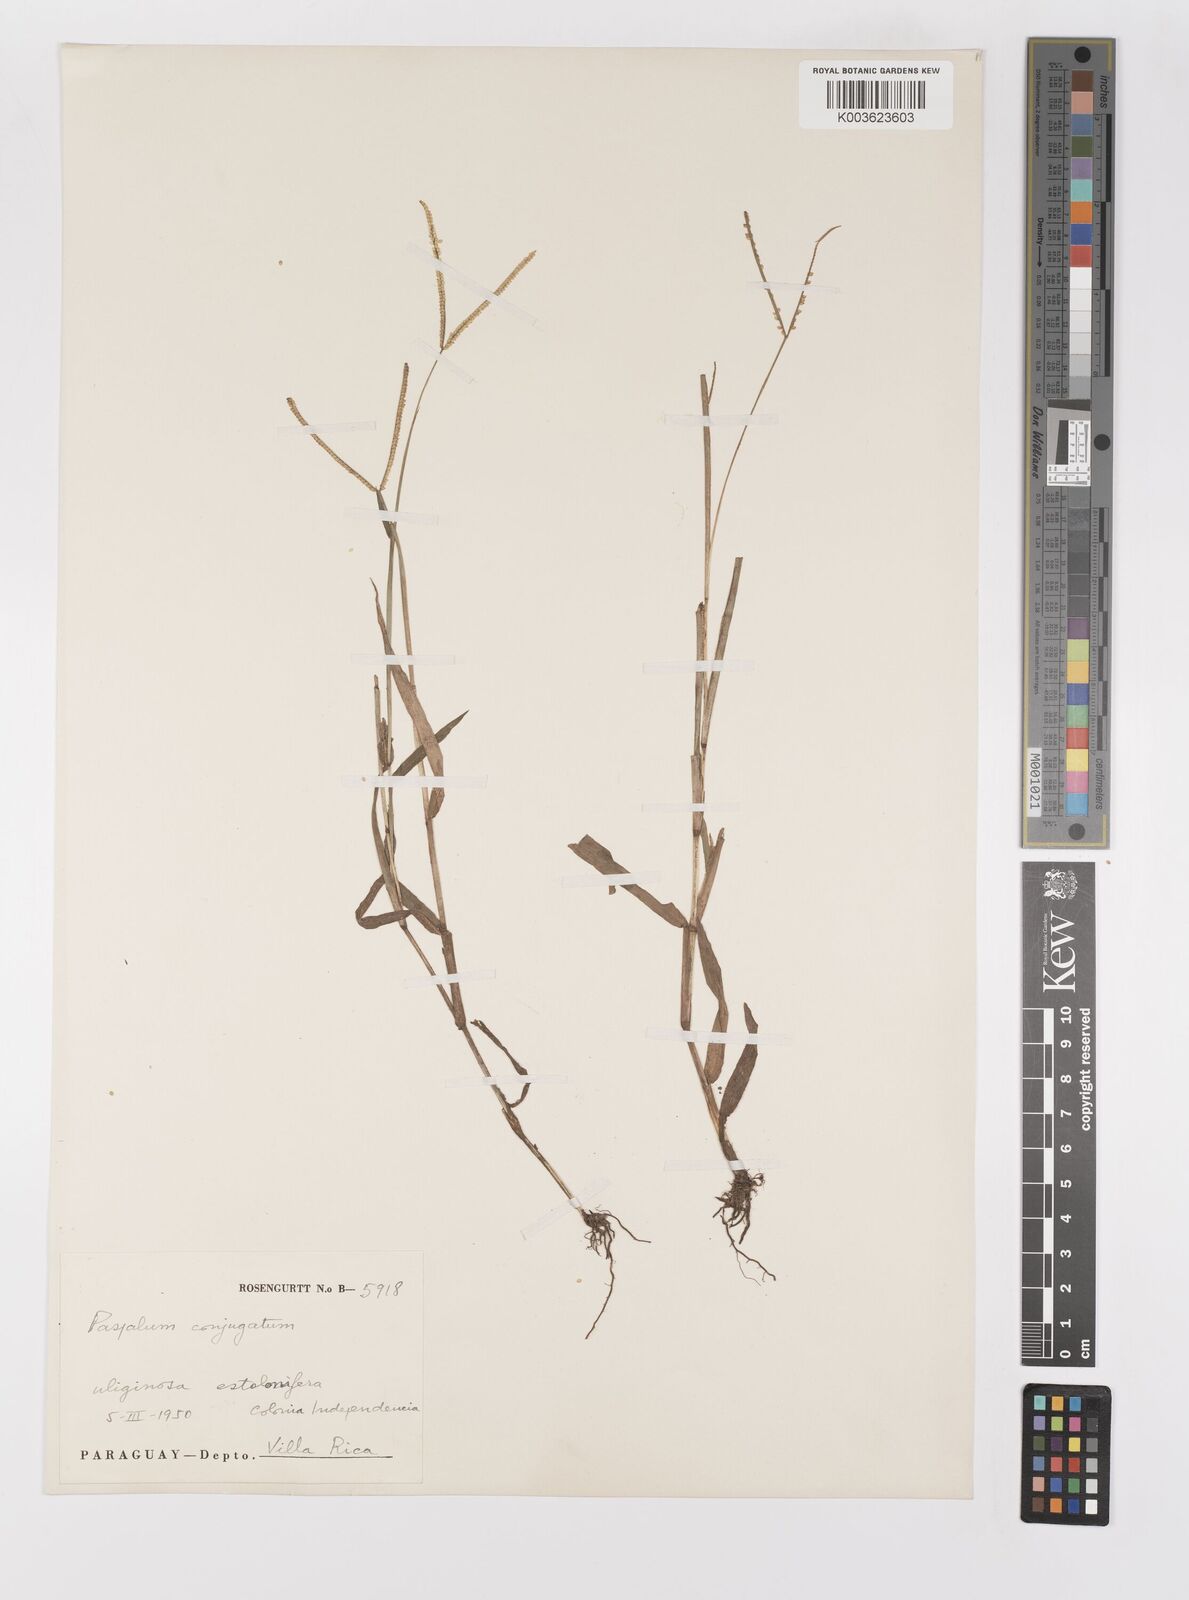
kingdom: Plantae
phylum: Tracheophyta
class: Liliopsida
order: Poales
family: Poaceae
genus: Paspalum
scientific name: Paspalum conjugatum
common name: Hilograss
